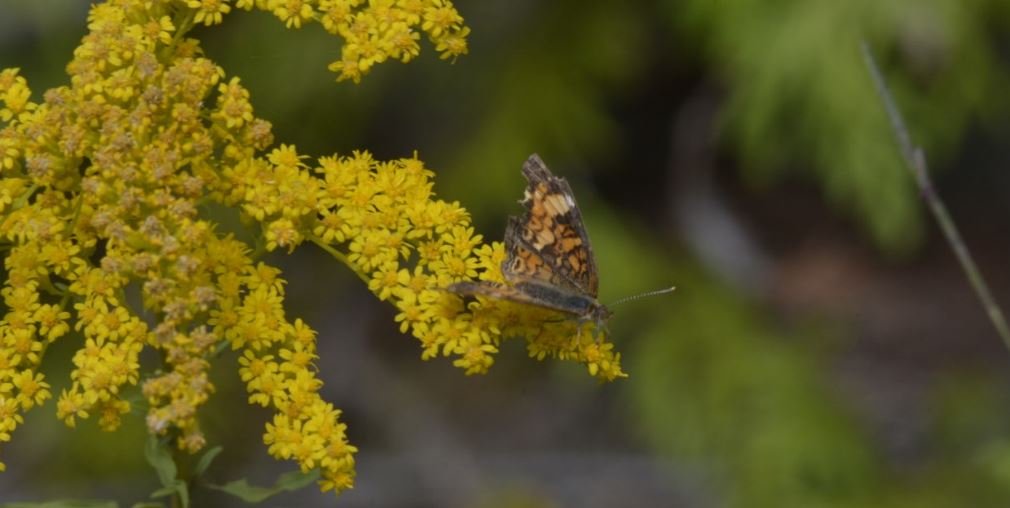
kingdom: Animalia
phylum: Arthropoda
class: Insecta
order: Lepidoptera
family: Nymphalidae
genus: Phyciodes
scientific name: Phyciodes tharos
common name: Northern Crescent
